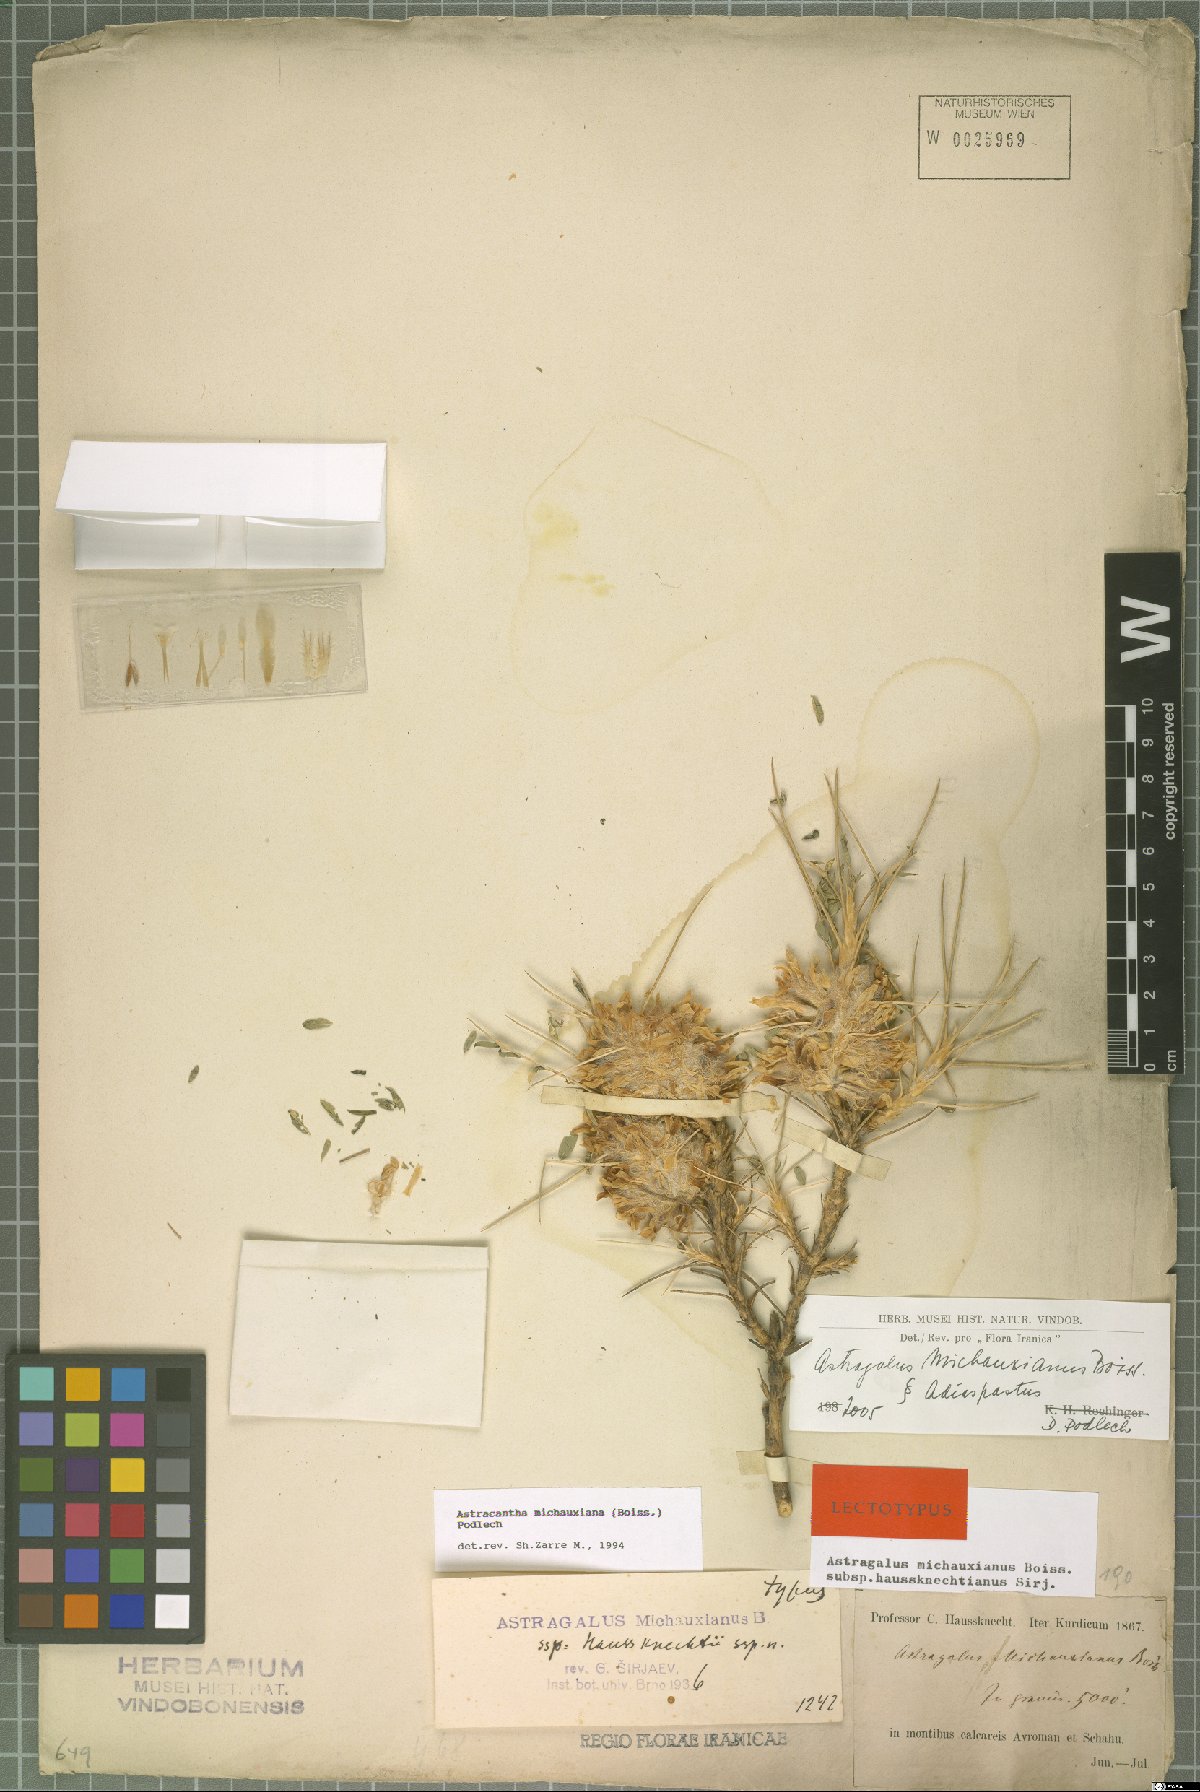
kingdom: Plantae
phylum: Tracheophyta
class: Magnoliopsida
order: Fabales
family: Fabaceae
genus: Astragalus
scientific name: Astragalus michauxianus
